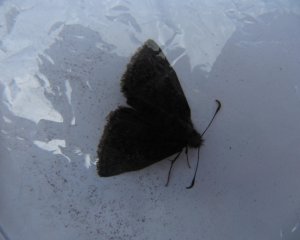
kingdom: Animalia
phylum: Arthropoda
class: Insecta
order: Lepidoptera
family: Hesperiidae
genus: Erynnis
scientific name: Erynnis icelus
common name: Dreamy Duskywing
